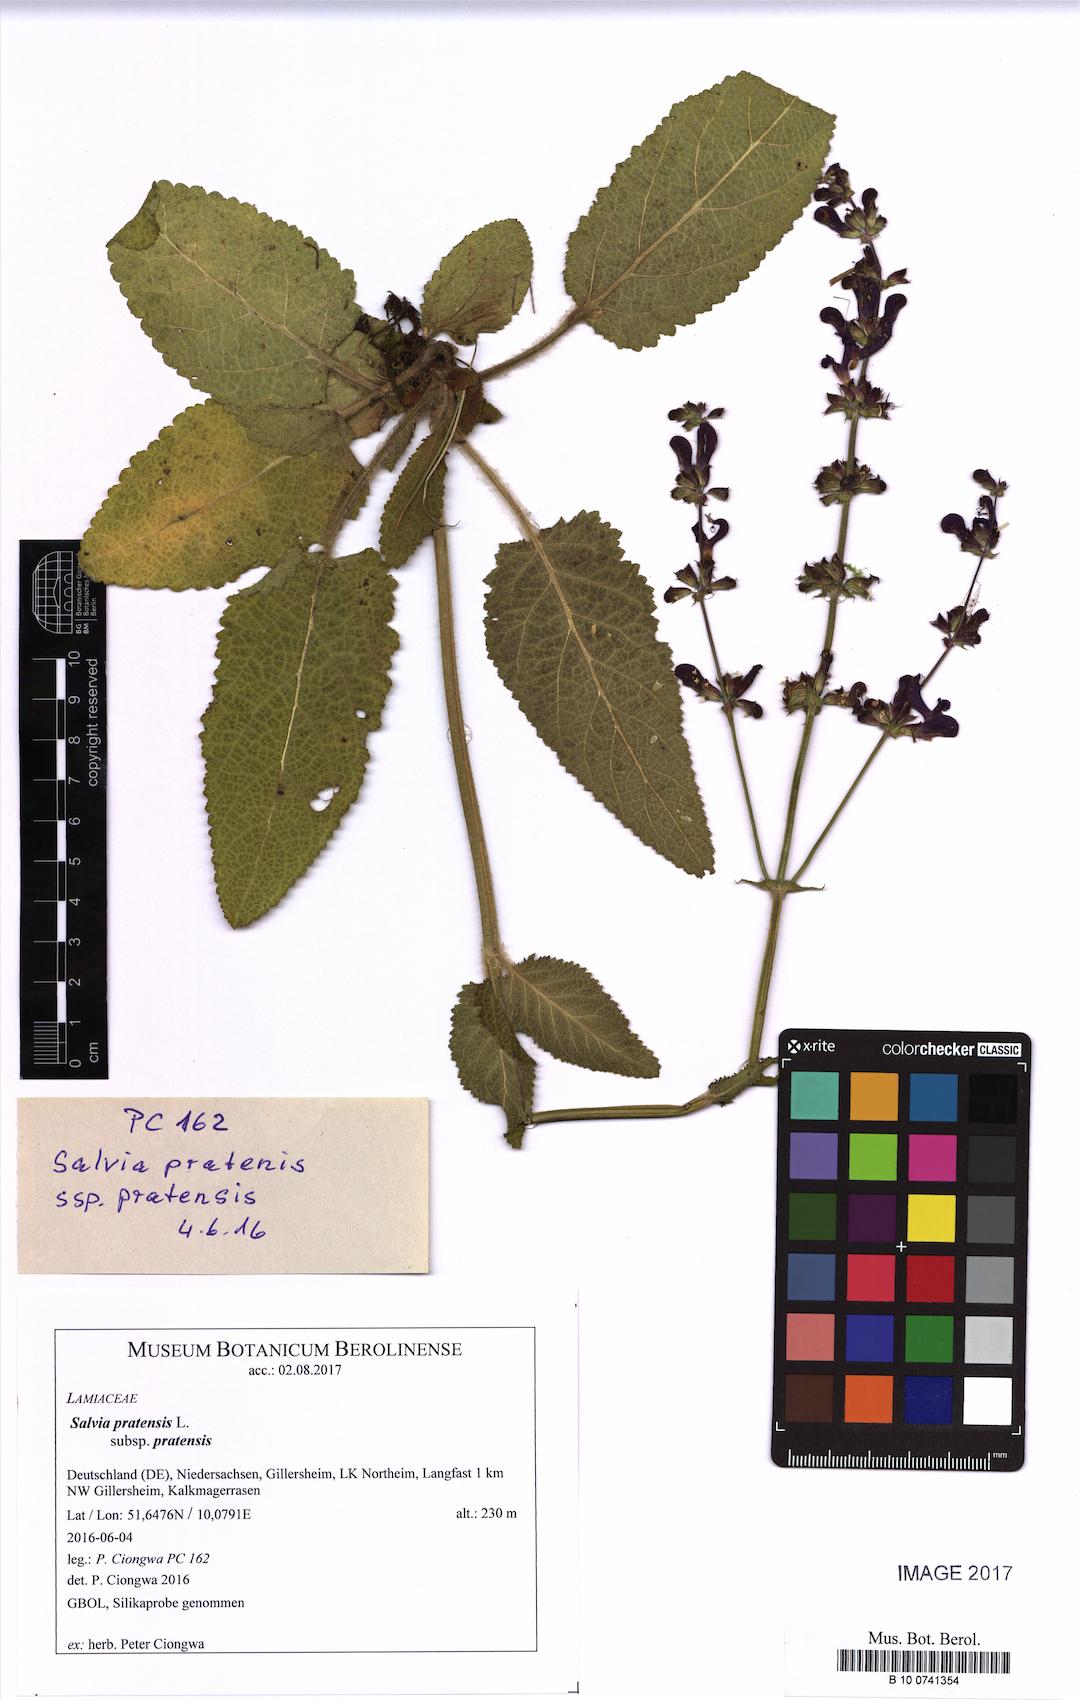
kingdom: Plantae
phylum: Tracheophyta
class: Magnoliopsida
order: Lamiales
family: Lamiaceae
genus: Salvia
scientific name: Salvia pratensis
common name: Meadow sage
